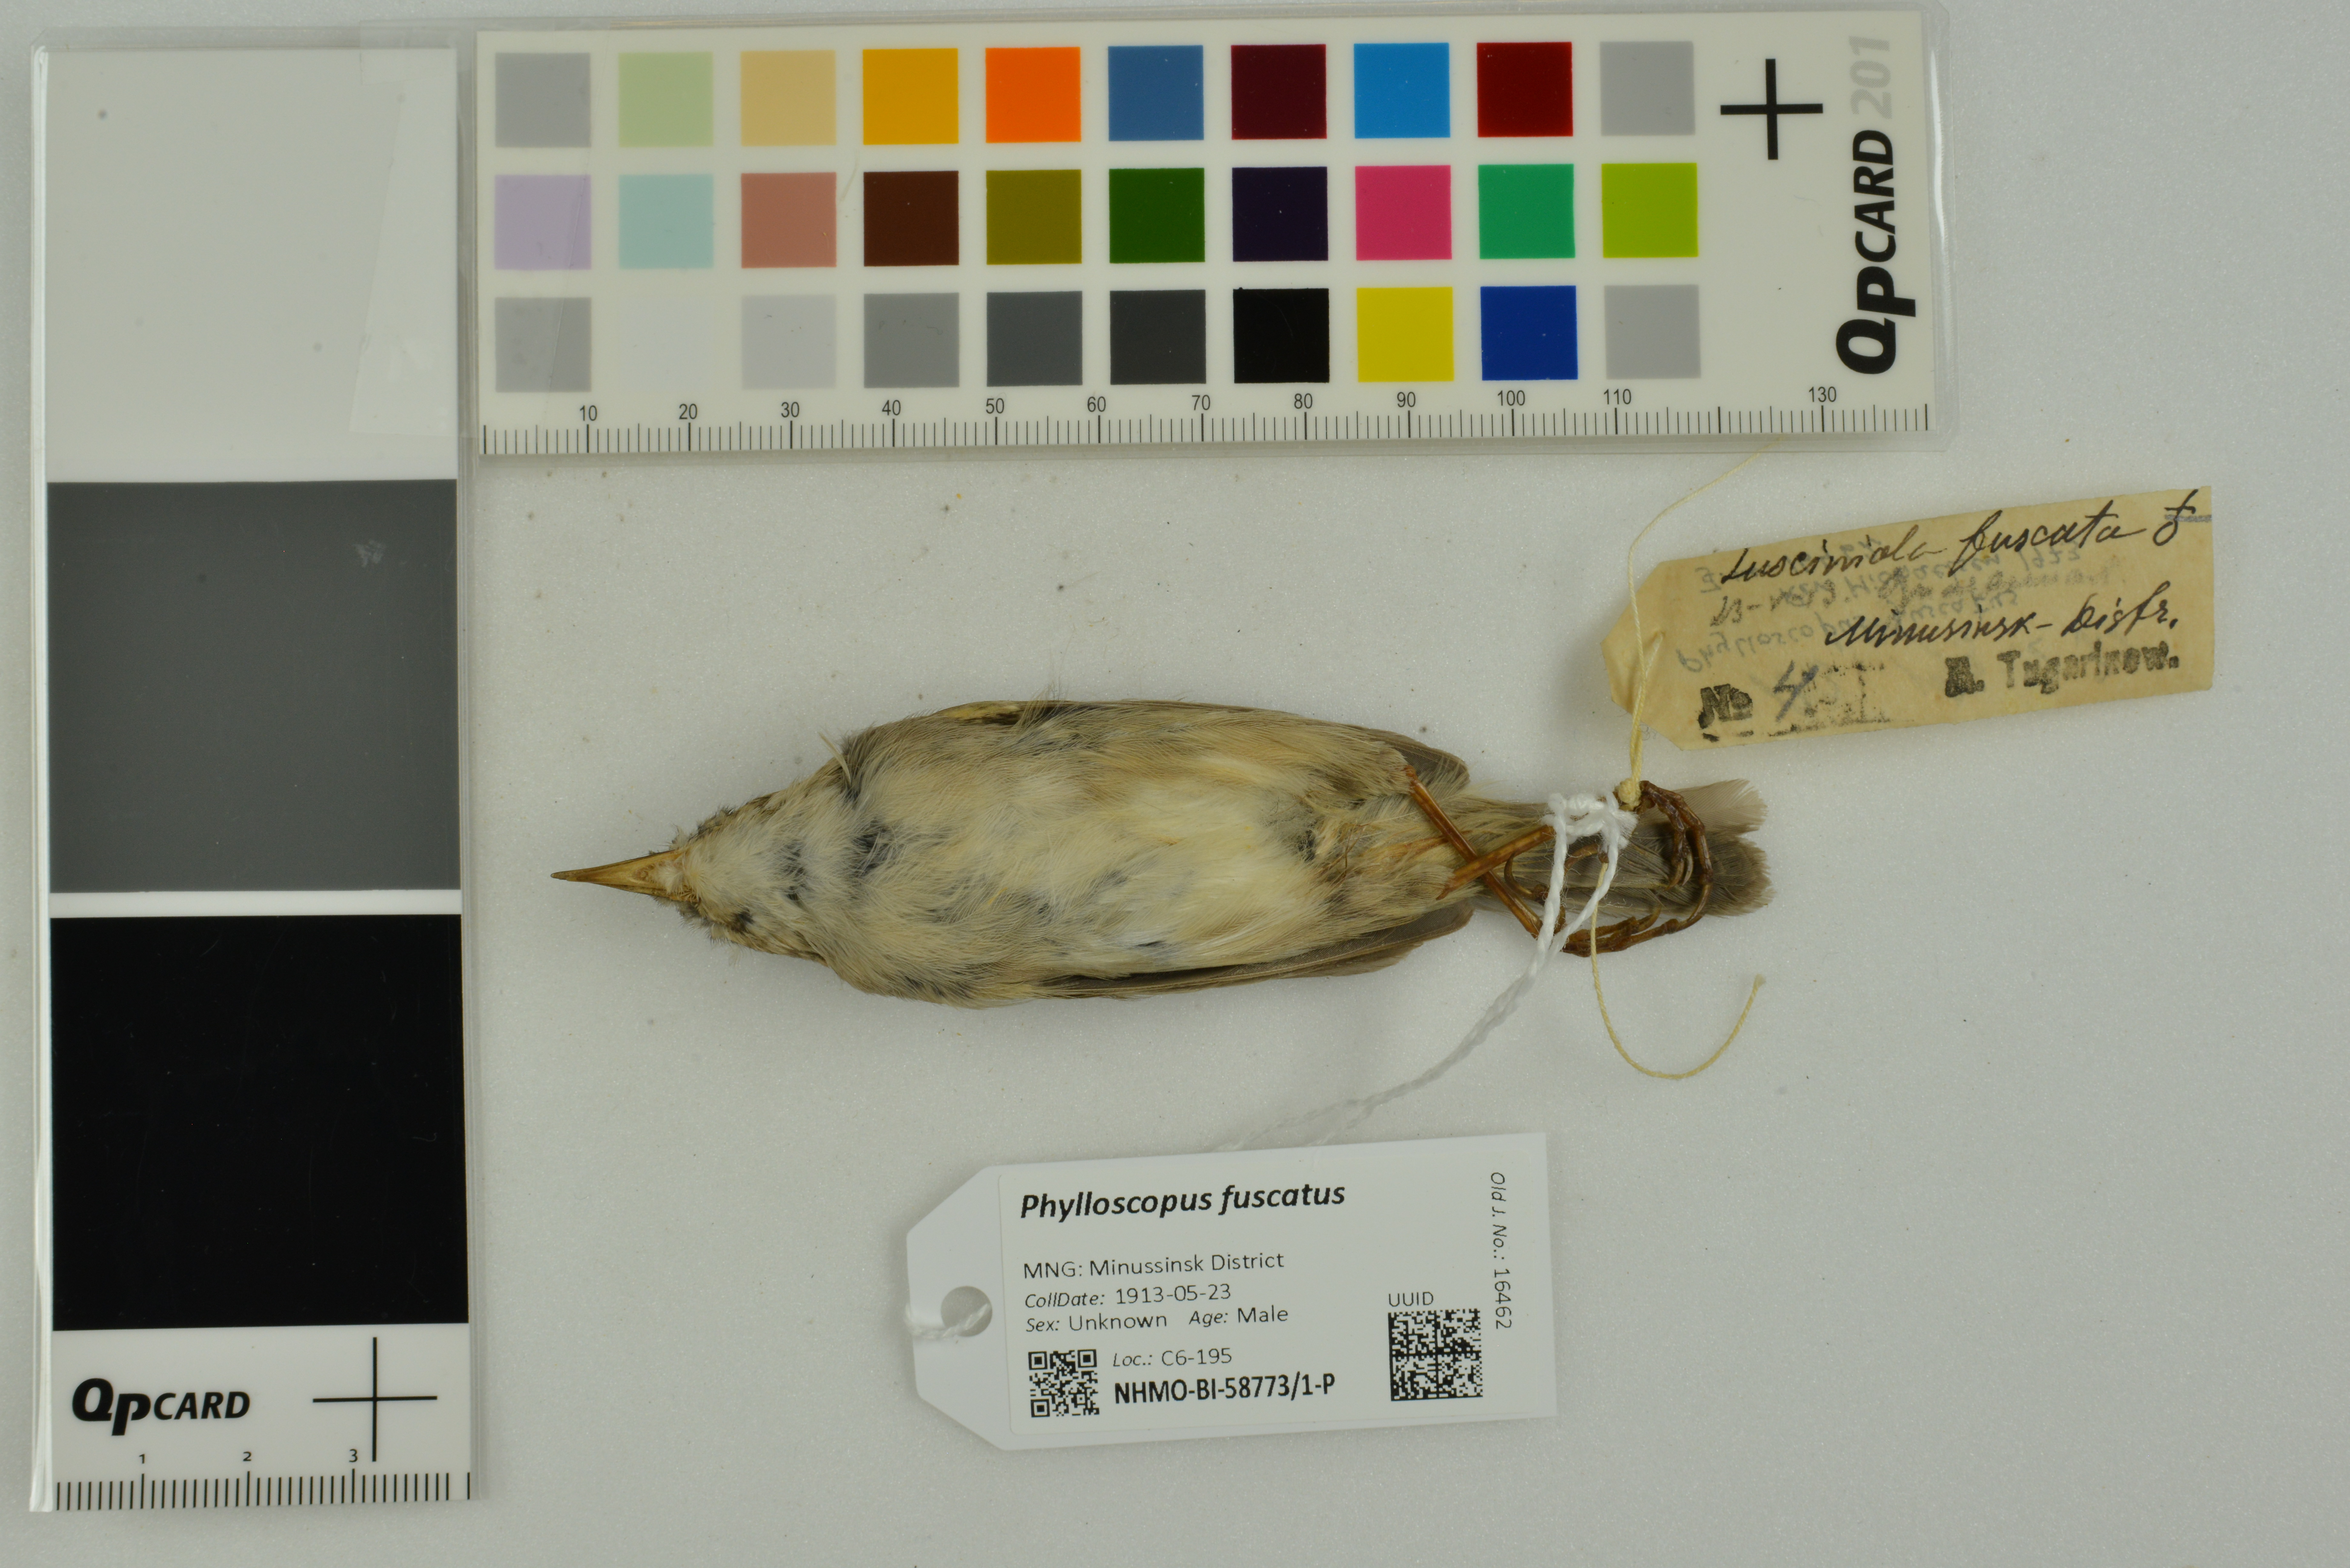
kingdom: Animalia
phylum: Chordata
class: Aves
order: Passeriformes
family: Phylloscopidae
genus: Phylloscopus
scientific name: Phylloscopus fuscatus
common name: Dusky warbler
